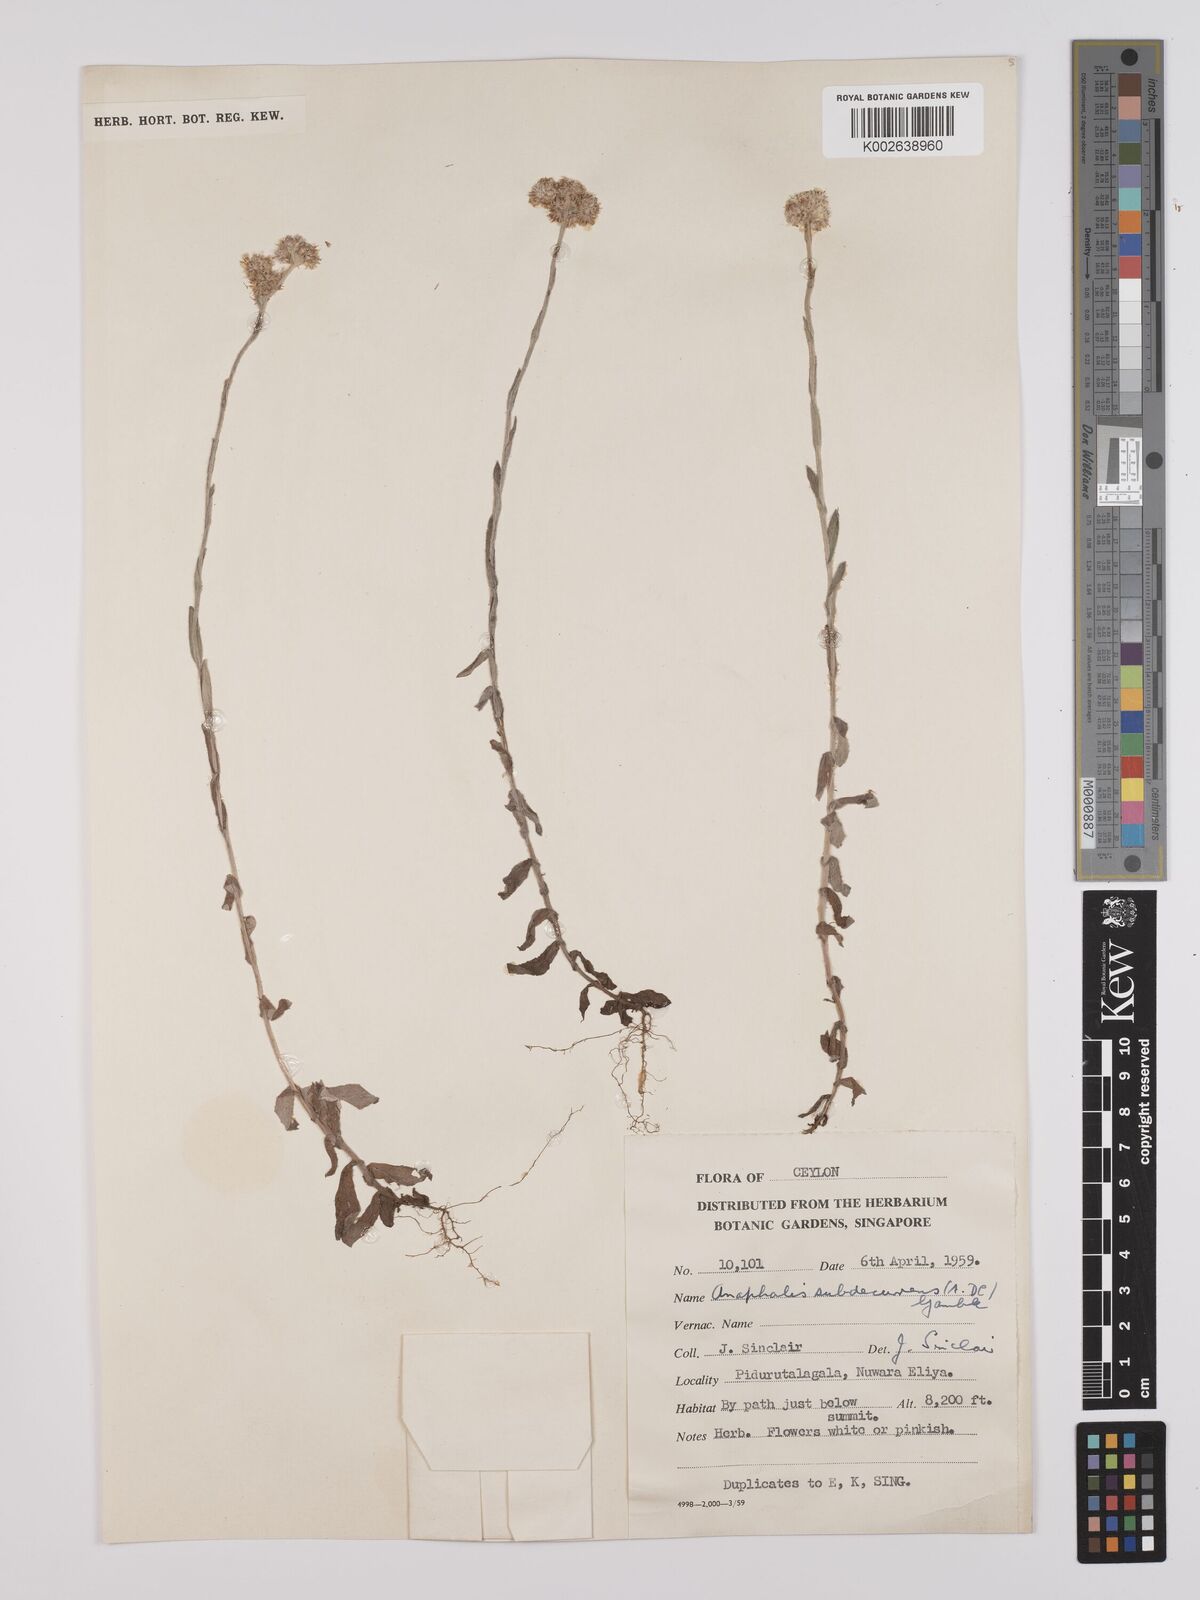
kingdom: Plantae
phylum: Tracheophyta
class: Magnoliopsida
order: Asterales
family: Asteraceae
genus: Anaphalis
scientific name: Anaphalis subdecurrens
